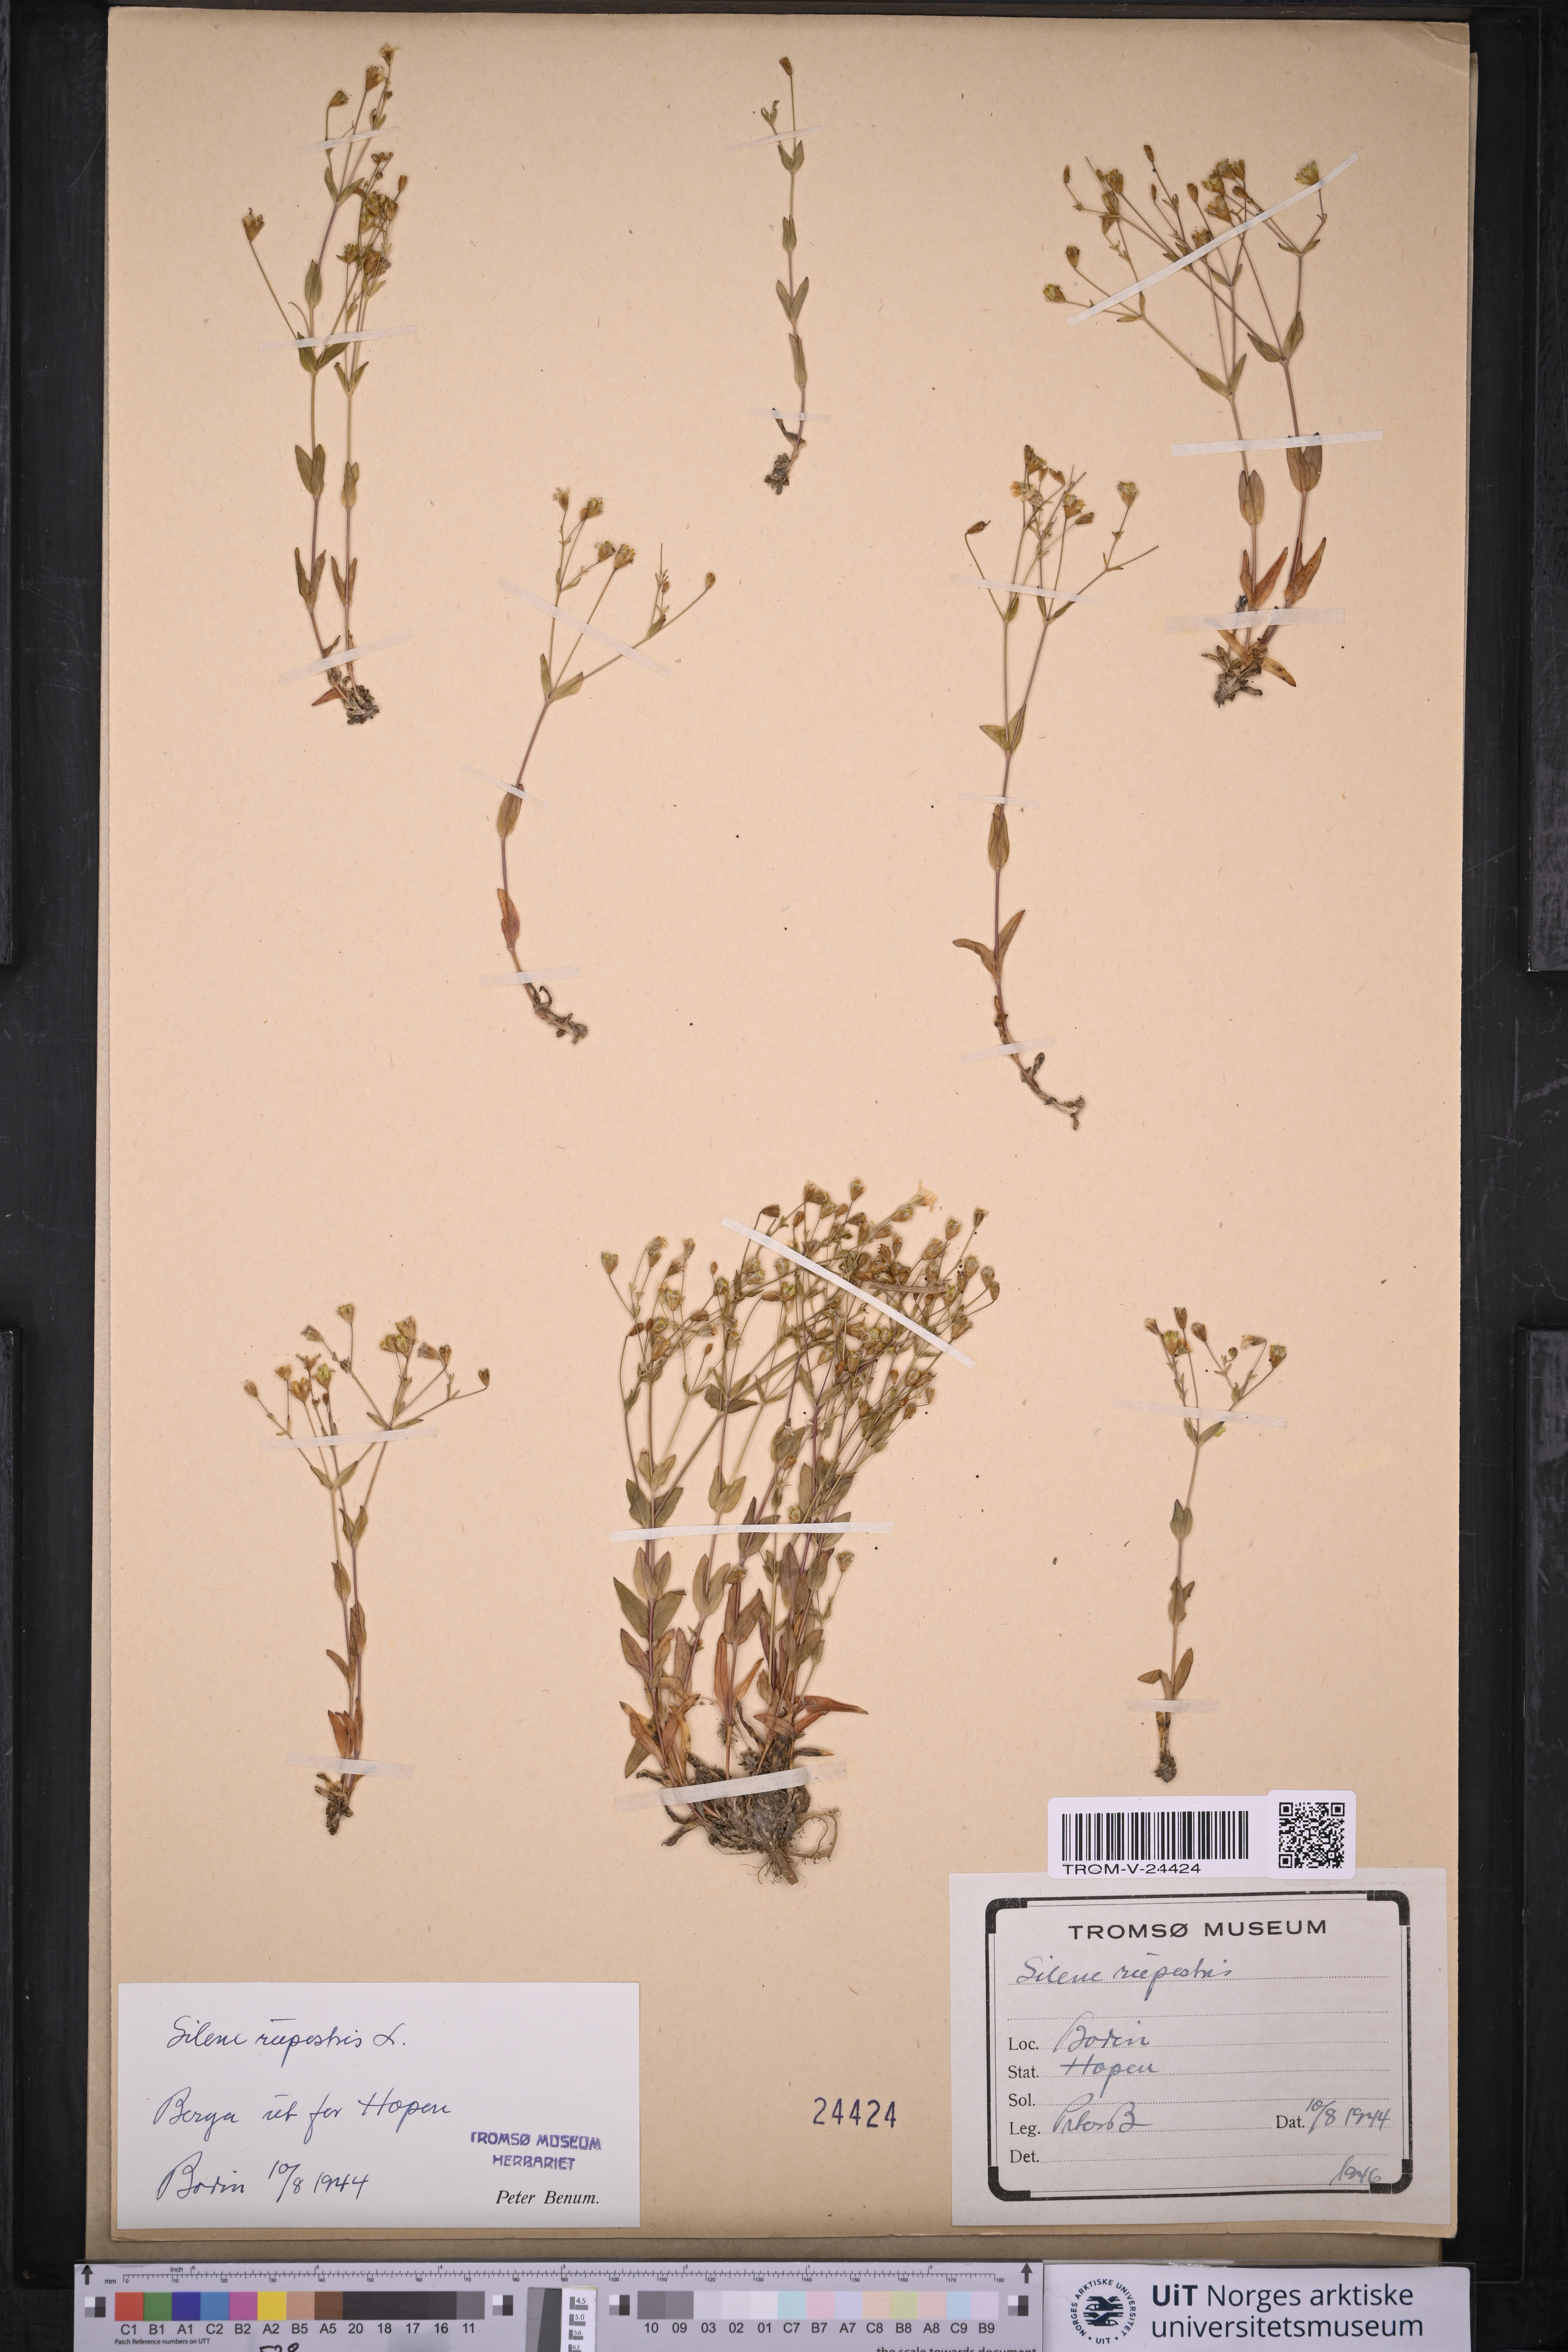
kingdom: Plantae
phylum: Tracheophyta
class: Magnoliopsida
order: Caryophyllales
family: Caryophyllaceae
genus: Atocion
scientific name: Atocion rupestre
